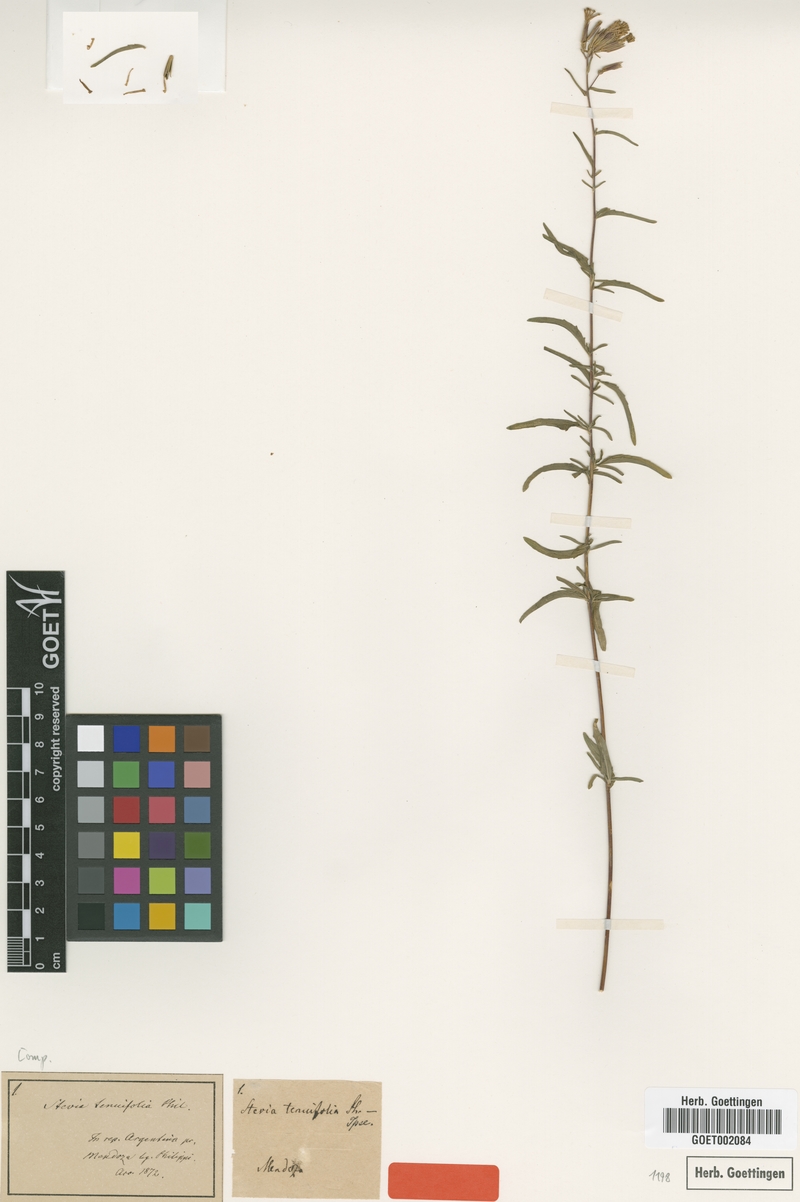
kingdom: Plantae
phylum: Tracheophyta
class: Magnoliopsida
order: Asterales
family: Asteraceae
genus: Stevia
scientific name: Stevia gilliesii
